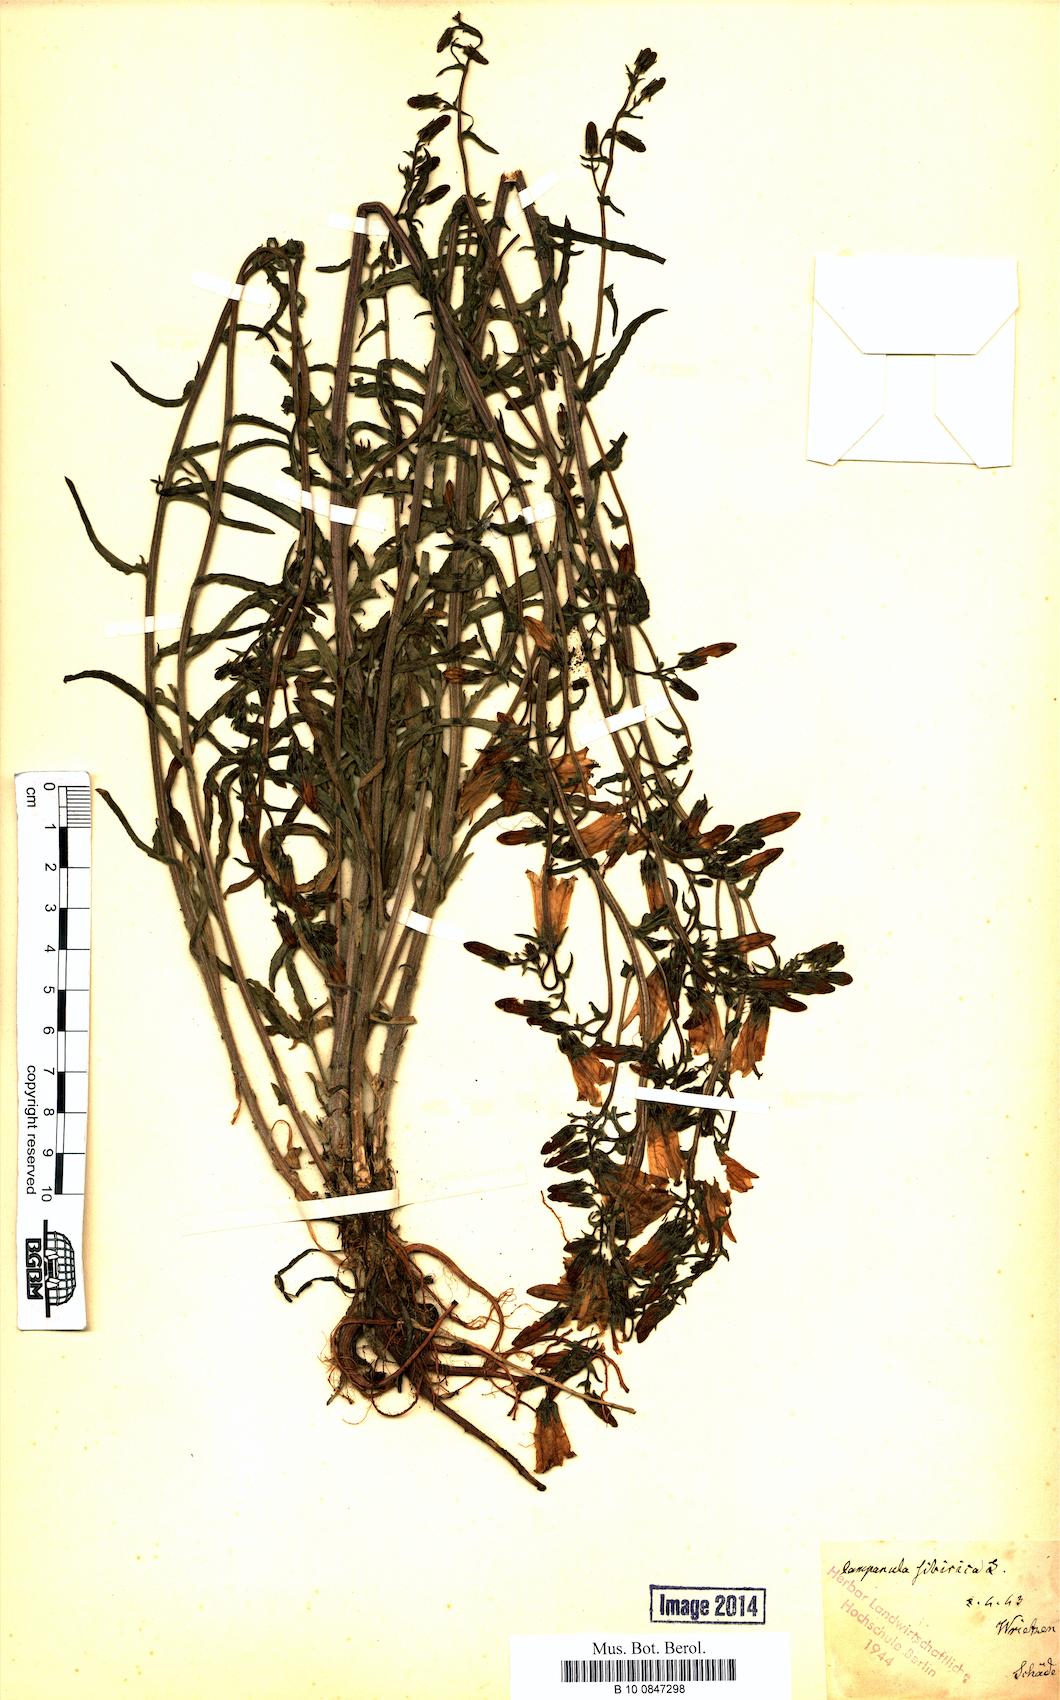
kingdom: Plantae
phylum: Tracheophyta
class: Magnoliopsida
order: Asterales
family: Campanulaceae
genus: Campanula
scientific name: Campanula sibirica
